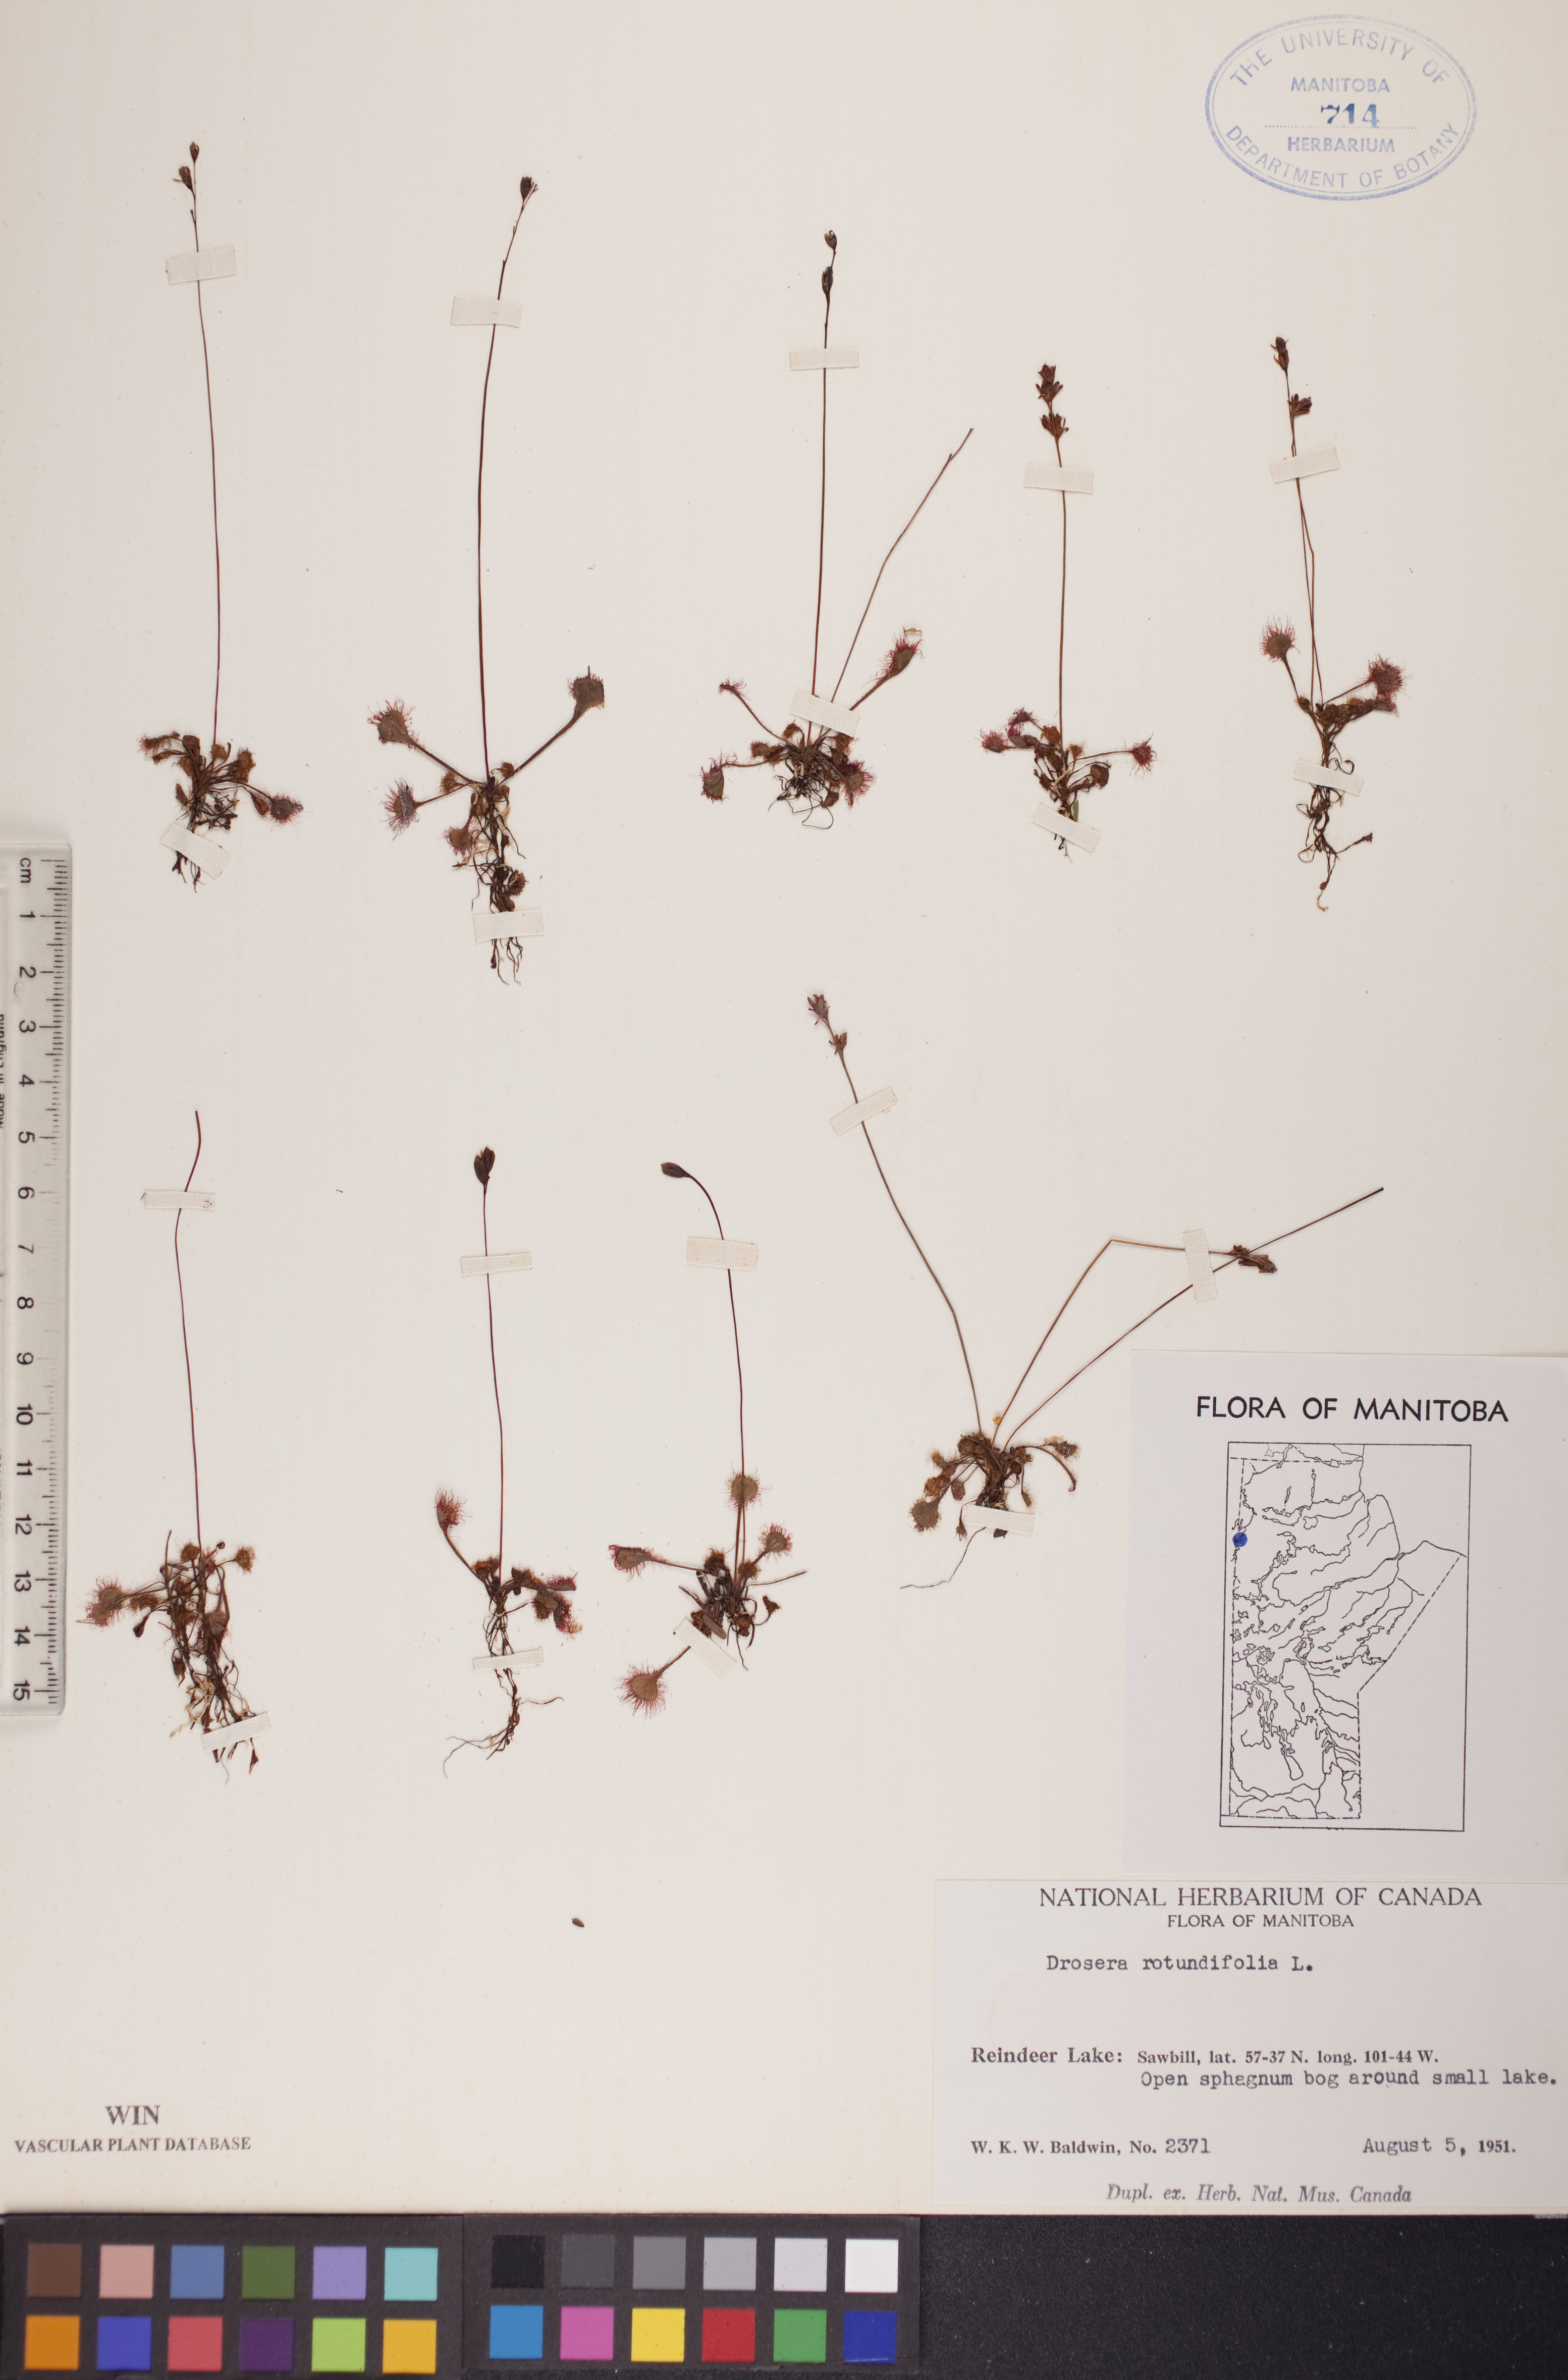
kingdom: Plantae
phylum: Tracheophyta
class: Magnoliopsida
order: Caryophyllales
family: Droseraceae
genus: Drosera
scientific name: Drosera rotundifolia
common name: Round-leaved sundew
